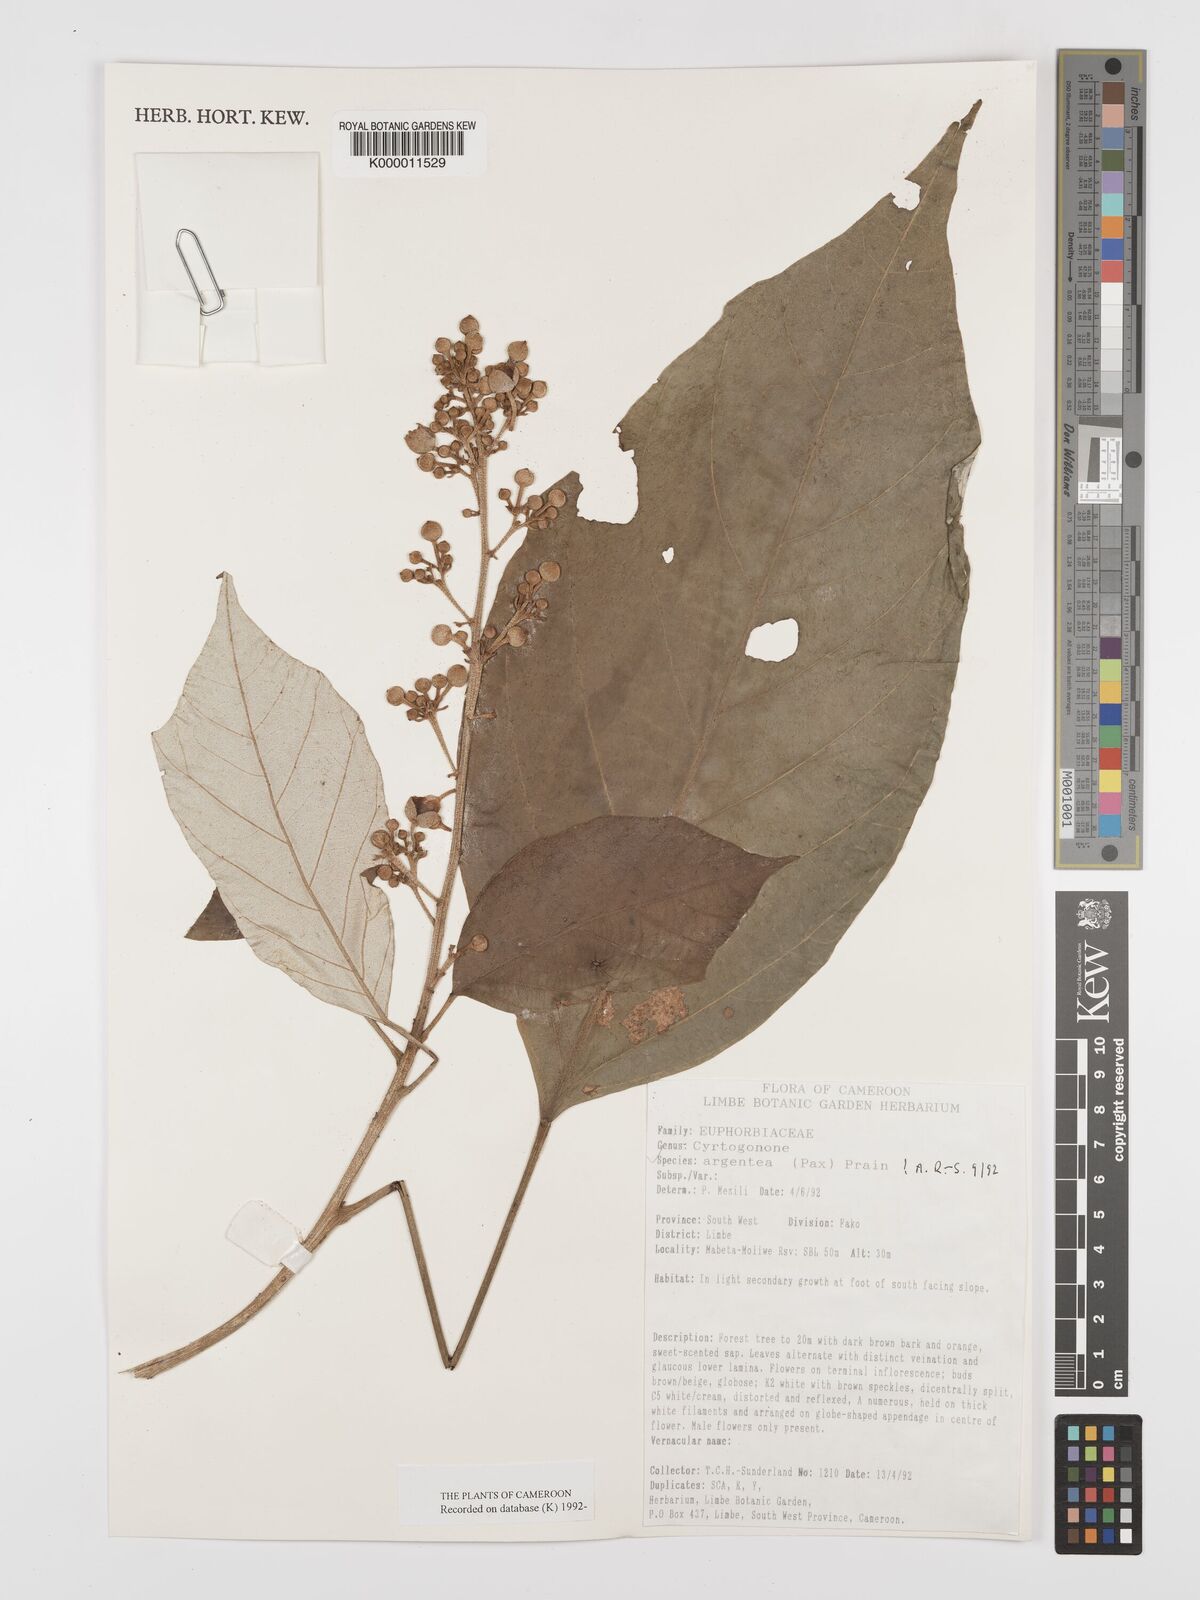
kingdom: Plantae
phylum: Tracheophyta
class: Magnoliopsida
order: Malpighiales
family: Euphorbiaceae
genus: Cyrtogonone
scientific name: Cyrtogonone argentea
